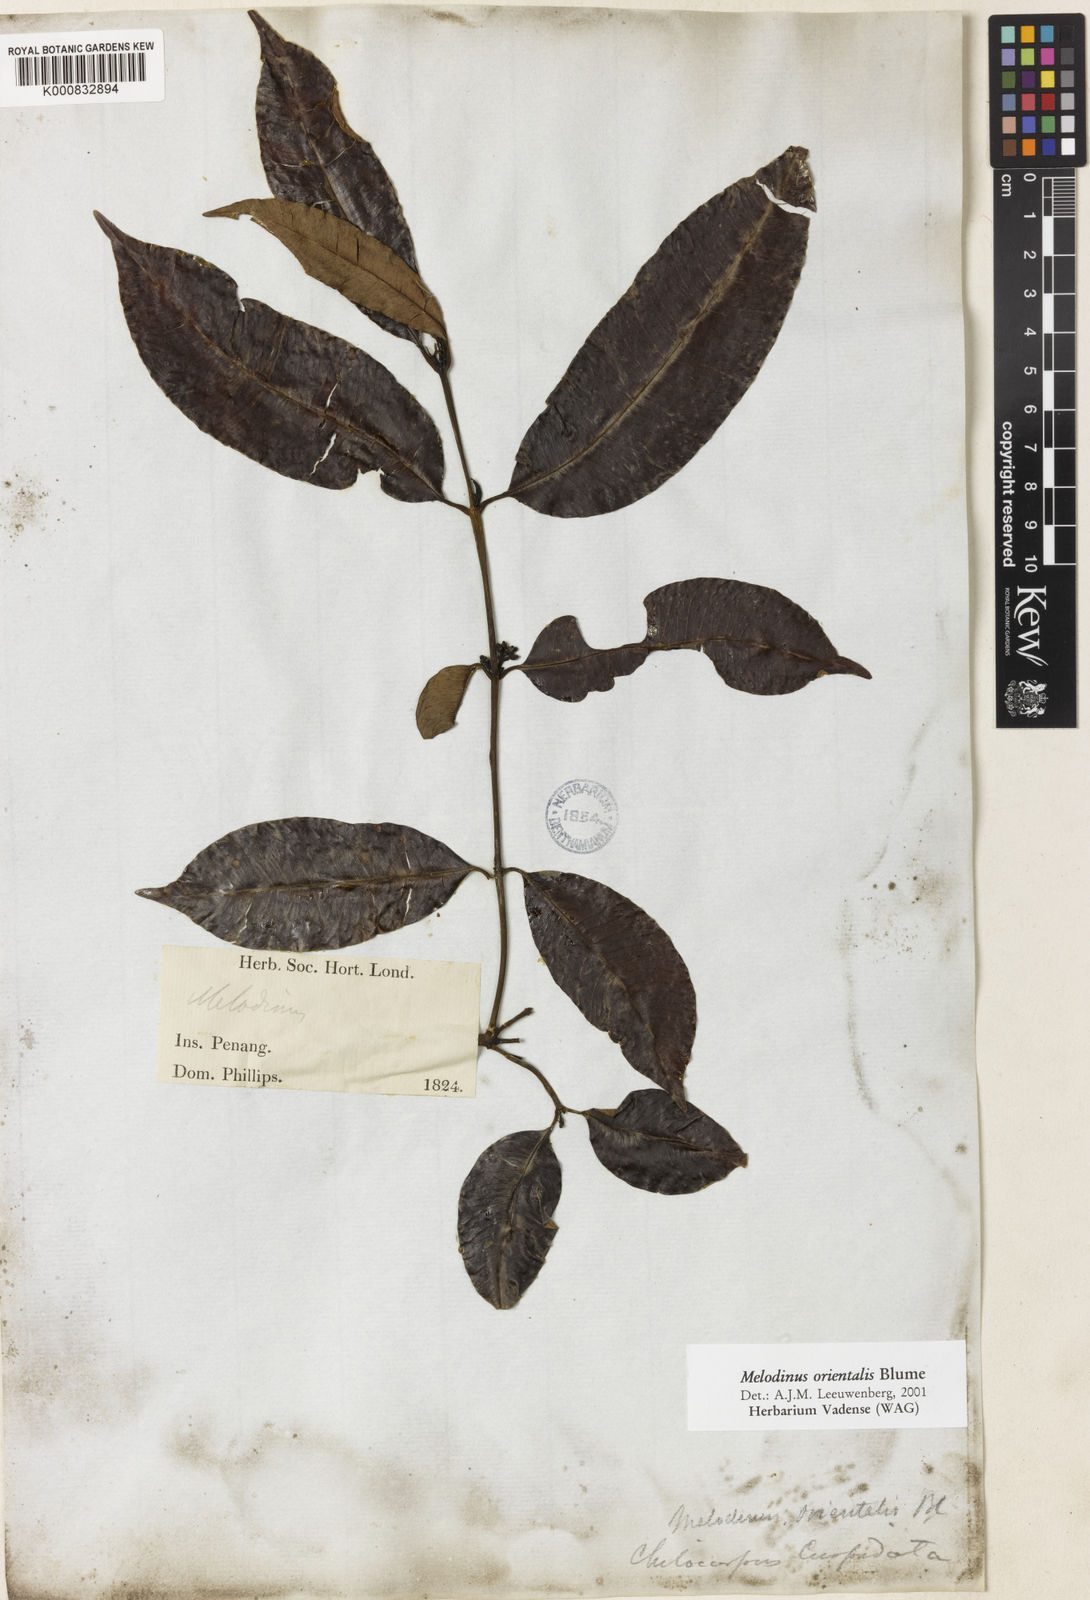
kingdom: Plantae
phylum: Tracheophyta
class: Magnoliopsida
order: Gentianales
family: Apocynaceae
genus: Melodinus
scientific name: Melodinus orientalis
